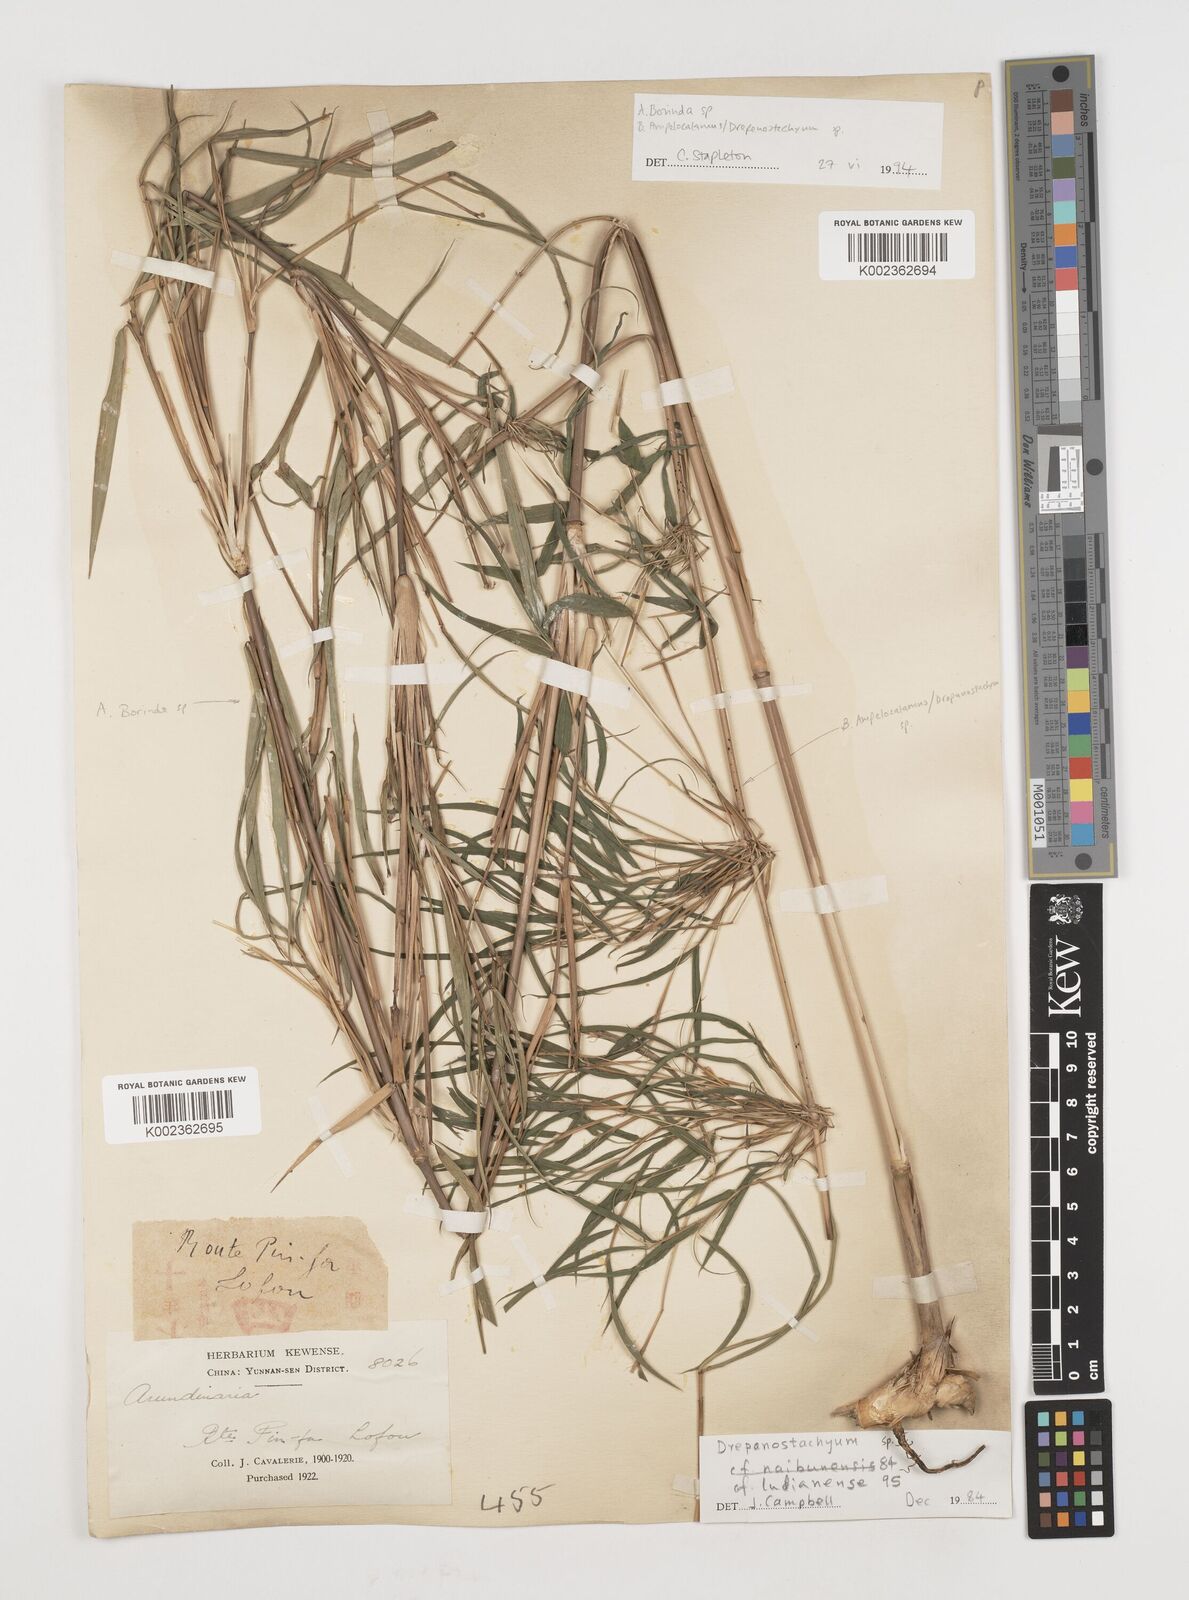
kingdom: Plantae
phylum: Tracheophyta
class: Liliopsida
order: Poales
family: Poaceae
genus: Ampelocalamus
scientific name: Ampelocalamus
